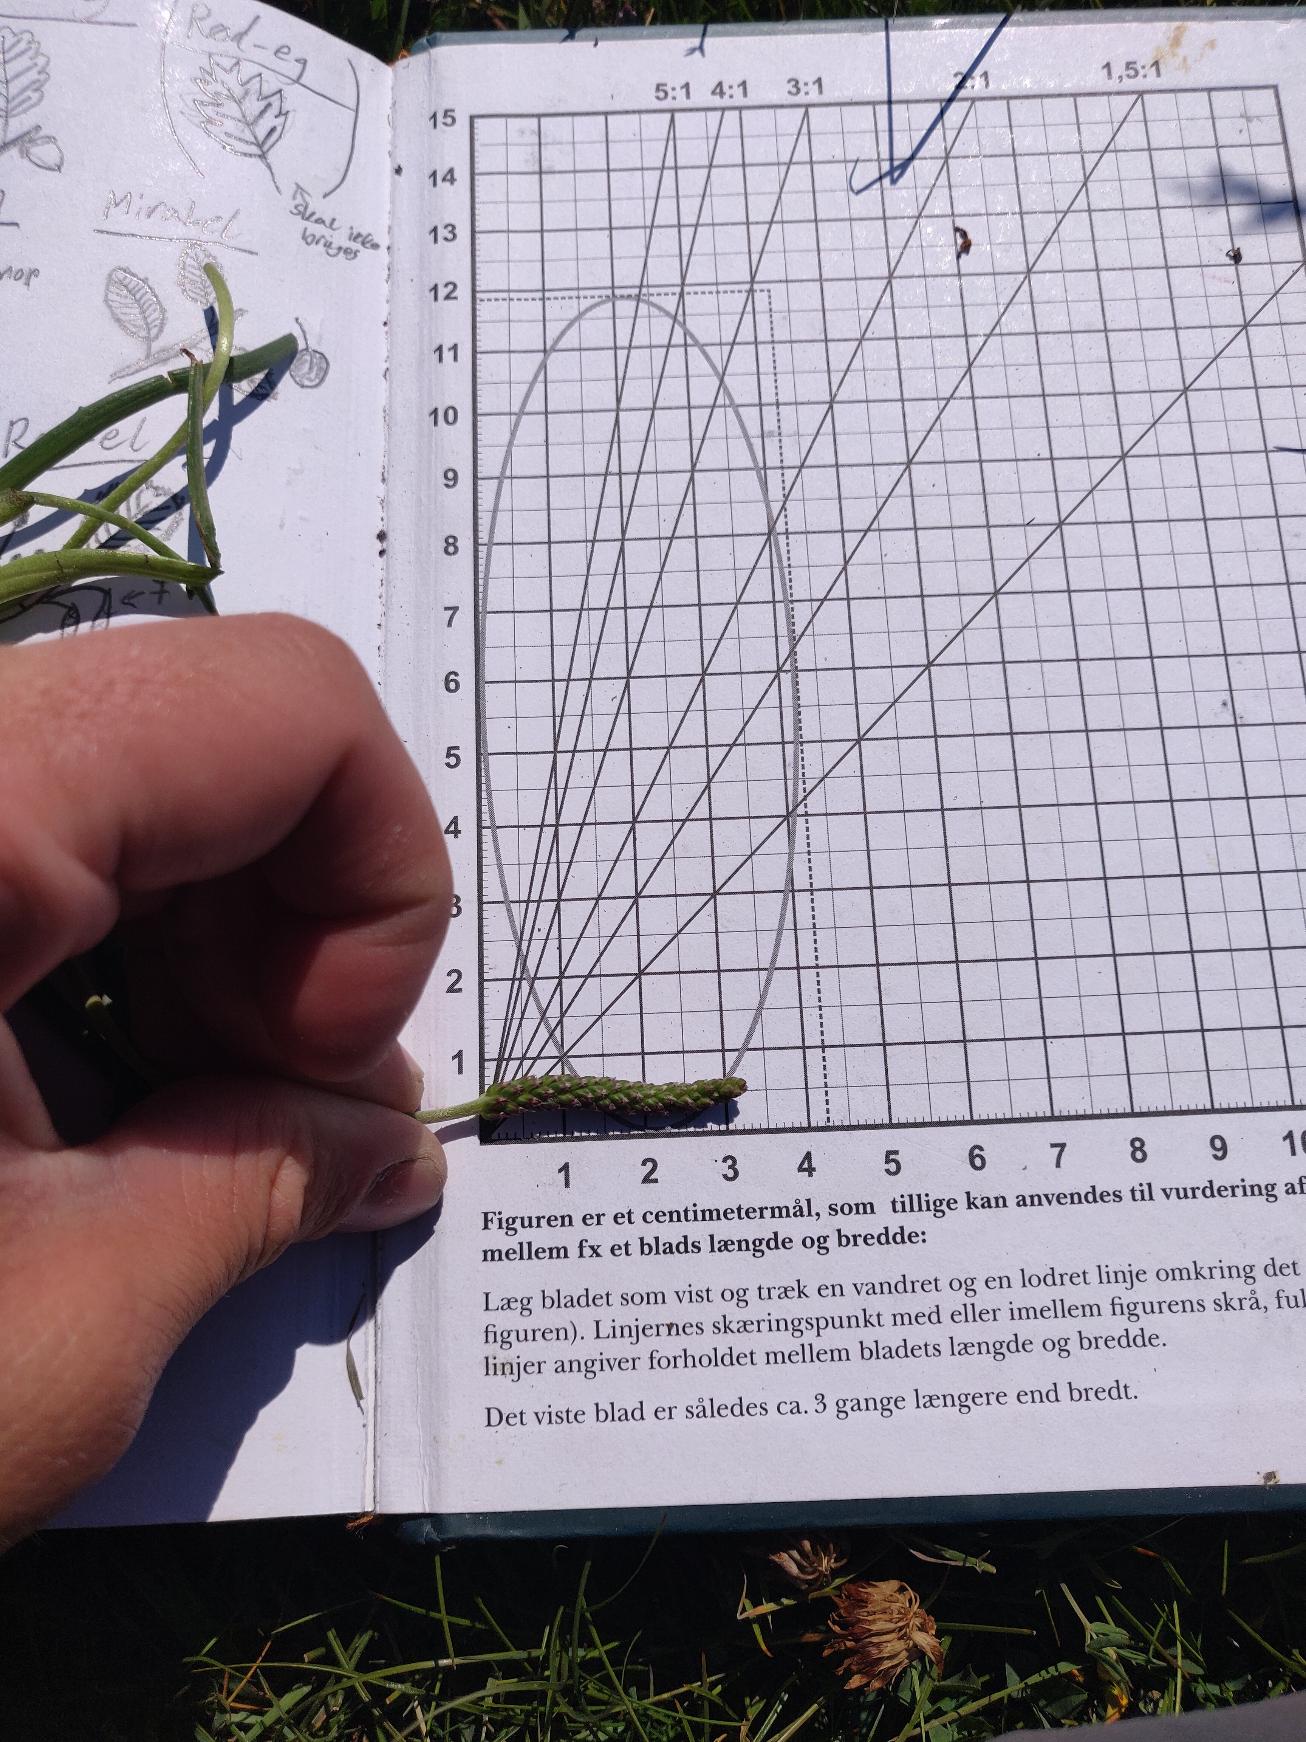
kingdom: Plantae
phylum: Tracheophyta
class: Magnoliopsida
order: Lamiales
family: Plantaginaceae
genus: Plantago
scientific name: Plantago maritima
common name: Strand-vejbred
